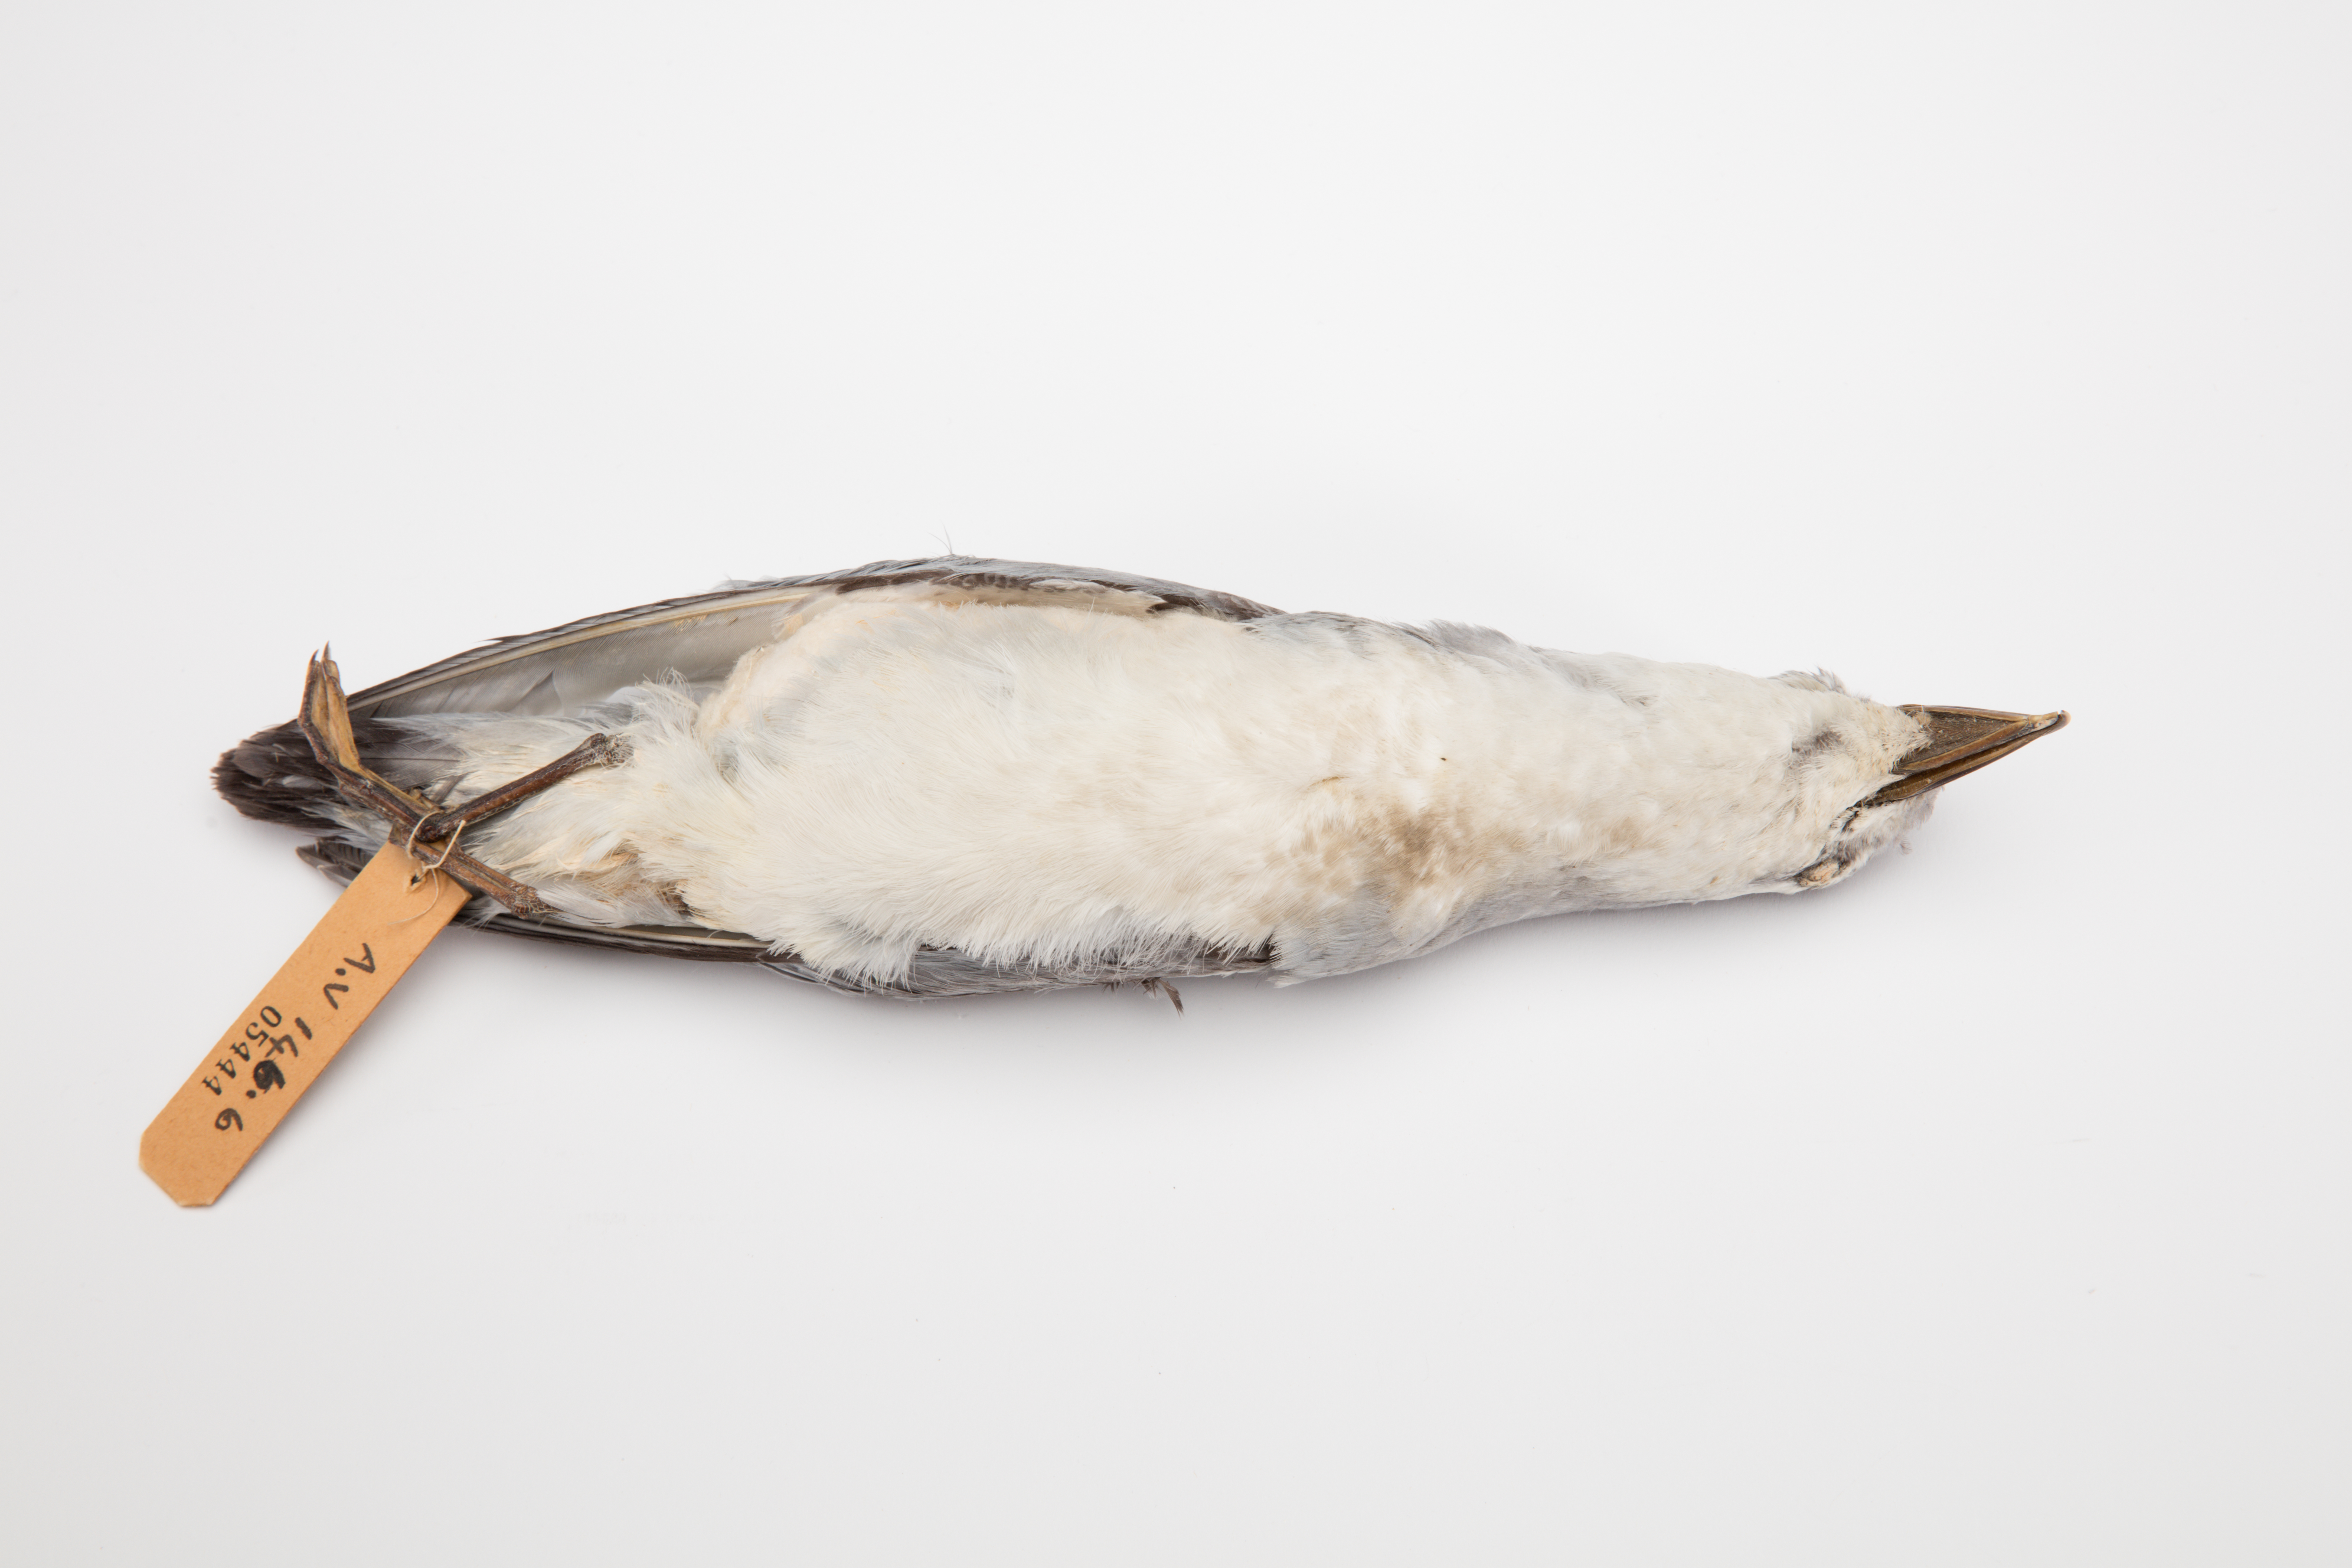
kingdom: Animalia
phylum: Chordata
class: Aves
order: Procellariiformes
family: Procellariidae
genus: Pachyptila
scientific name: Pachyptila salvini
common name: Salvin's prion
